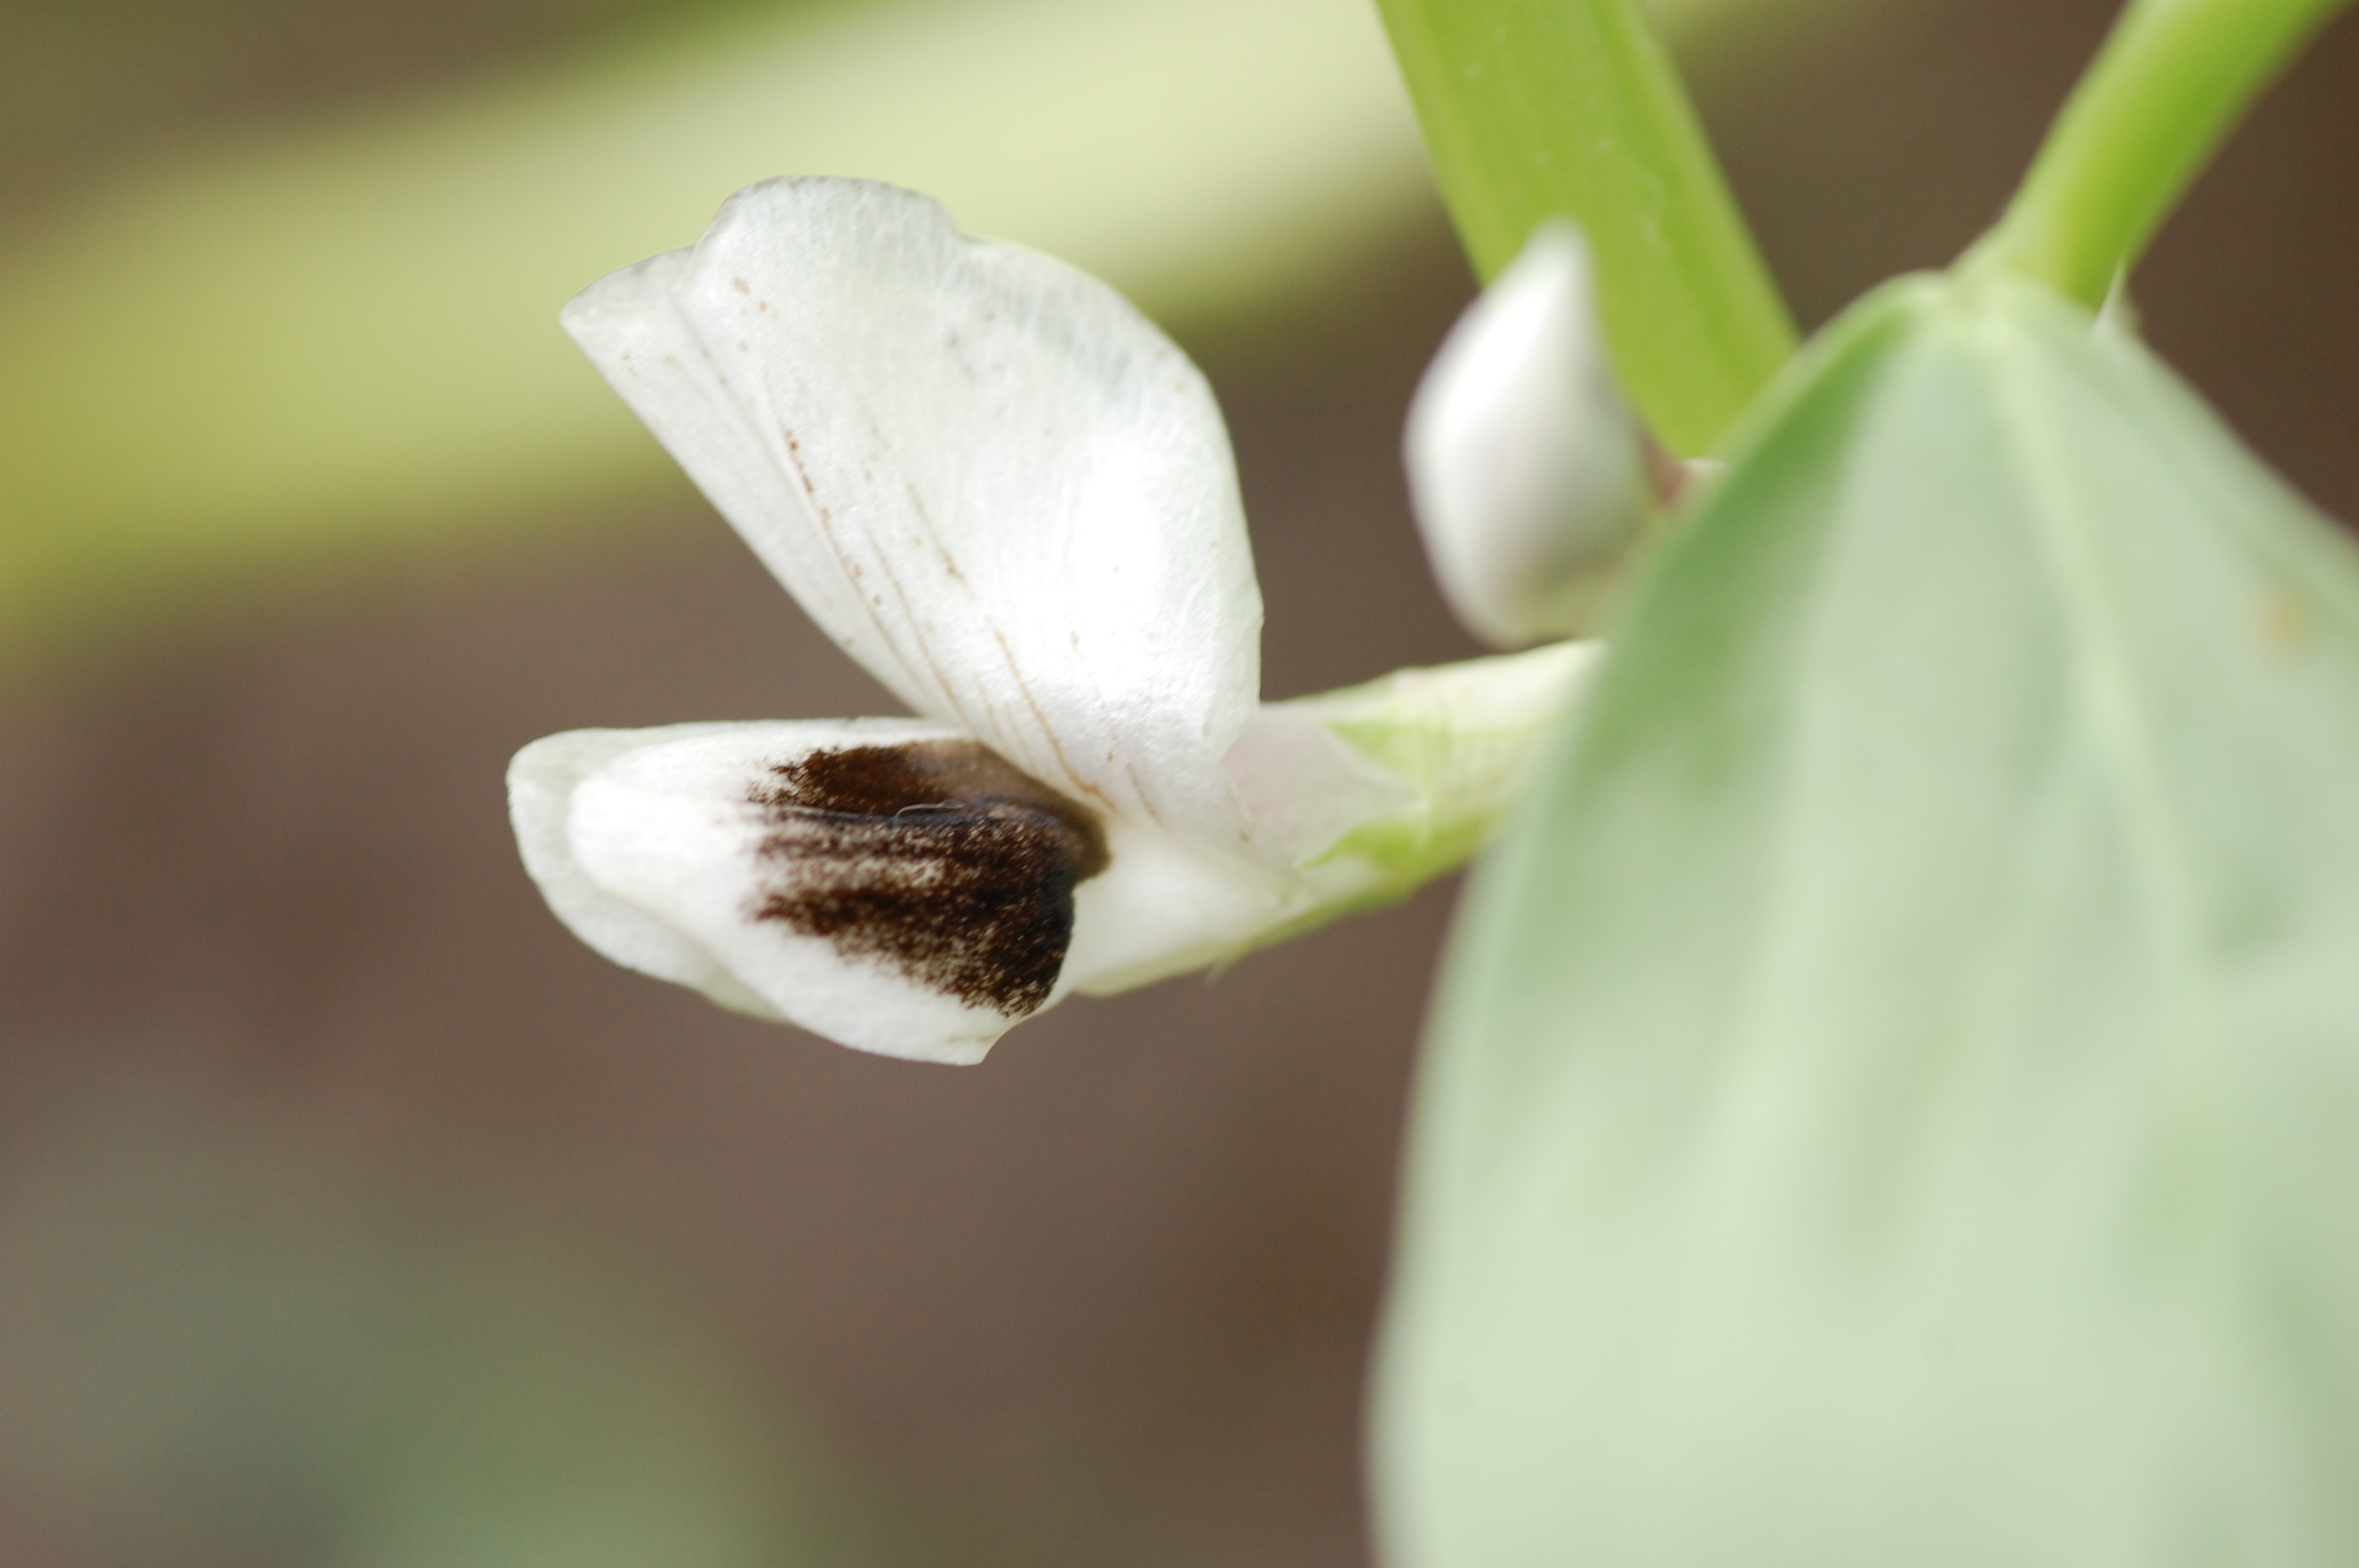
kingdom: Plantae
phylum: Tracheophyta
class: Magnoliopsida
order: Fabales
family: Fabaceae
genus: Vicia
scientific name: Vicia faba
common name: Broad bean
